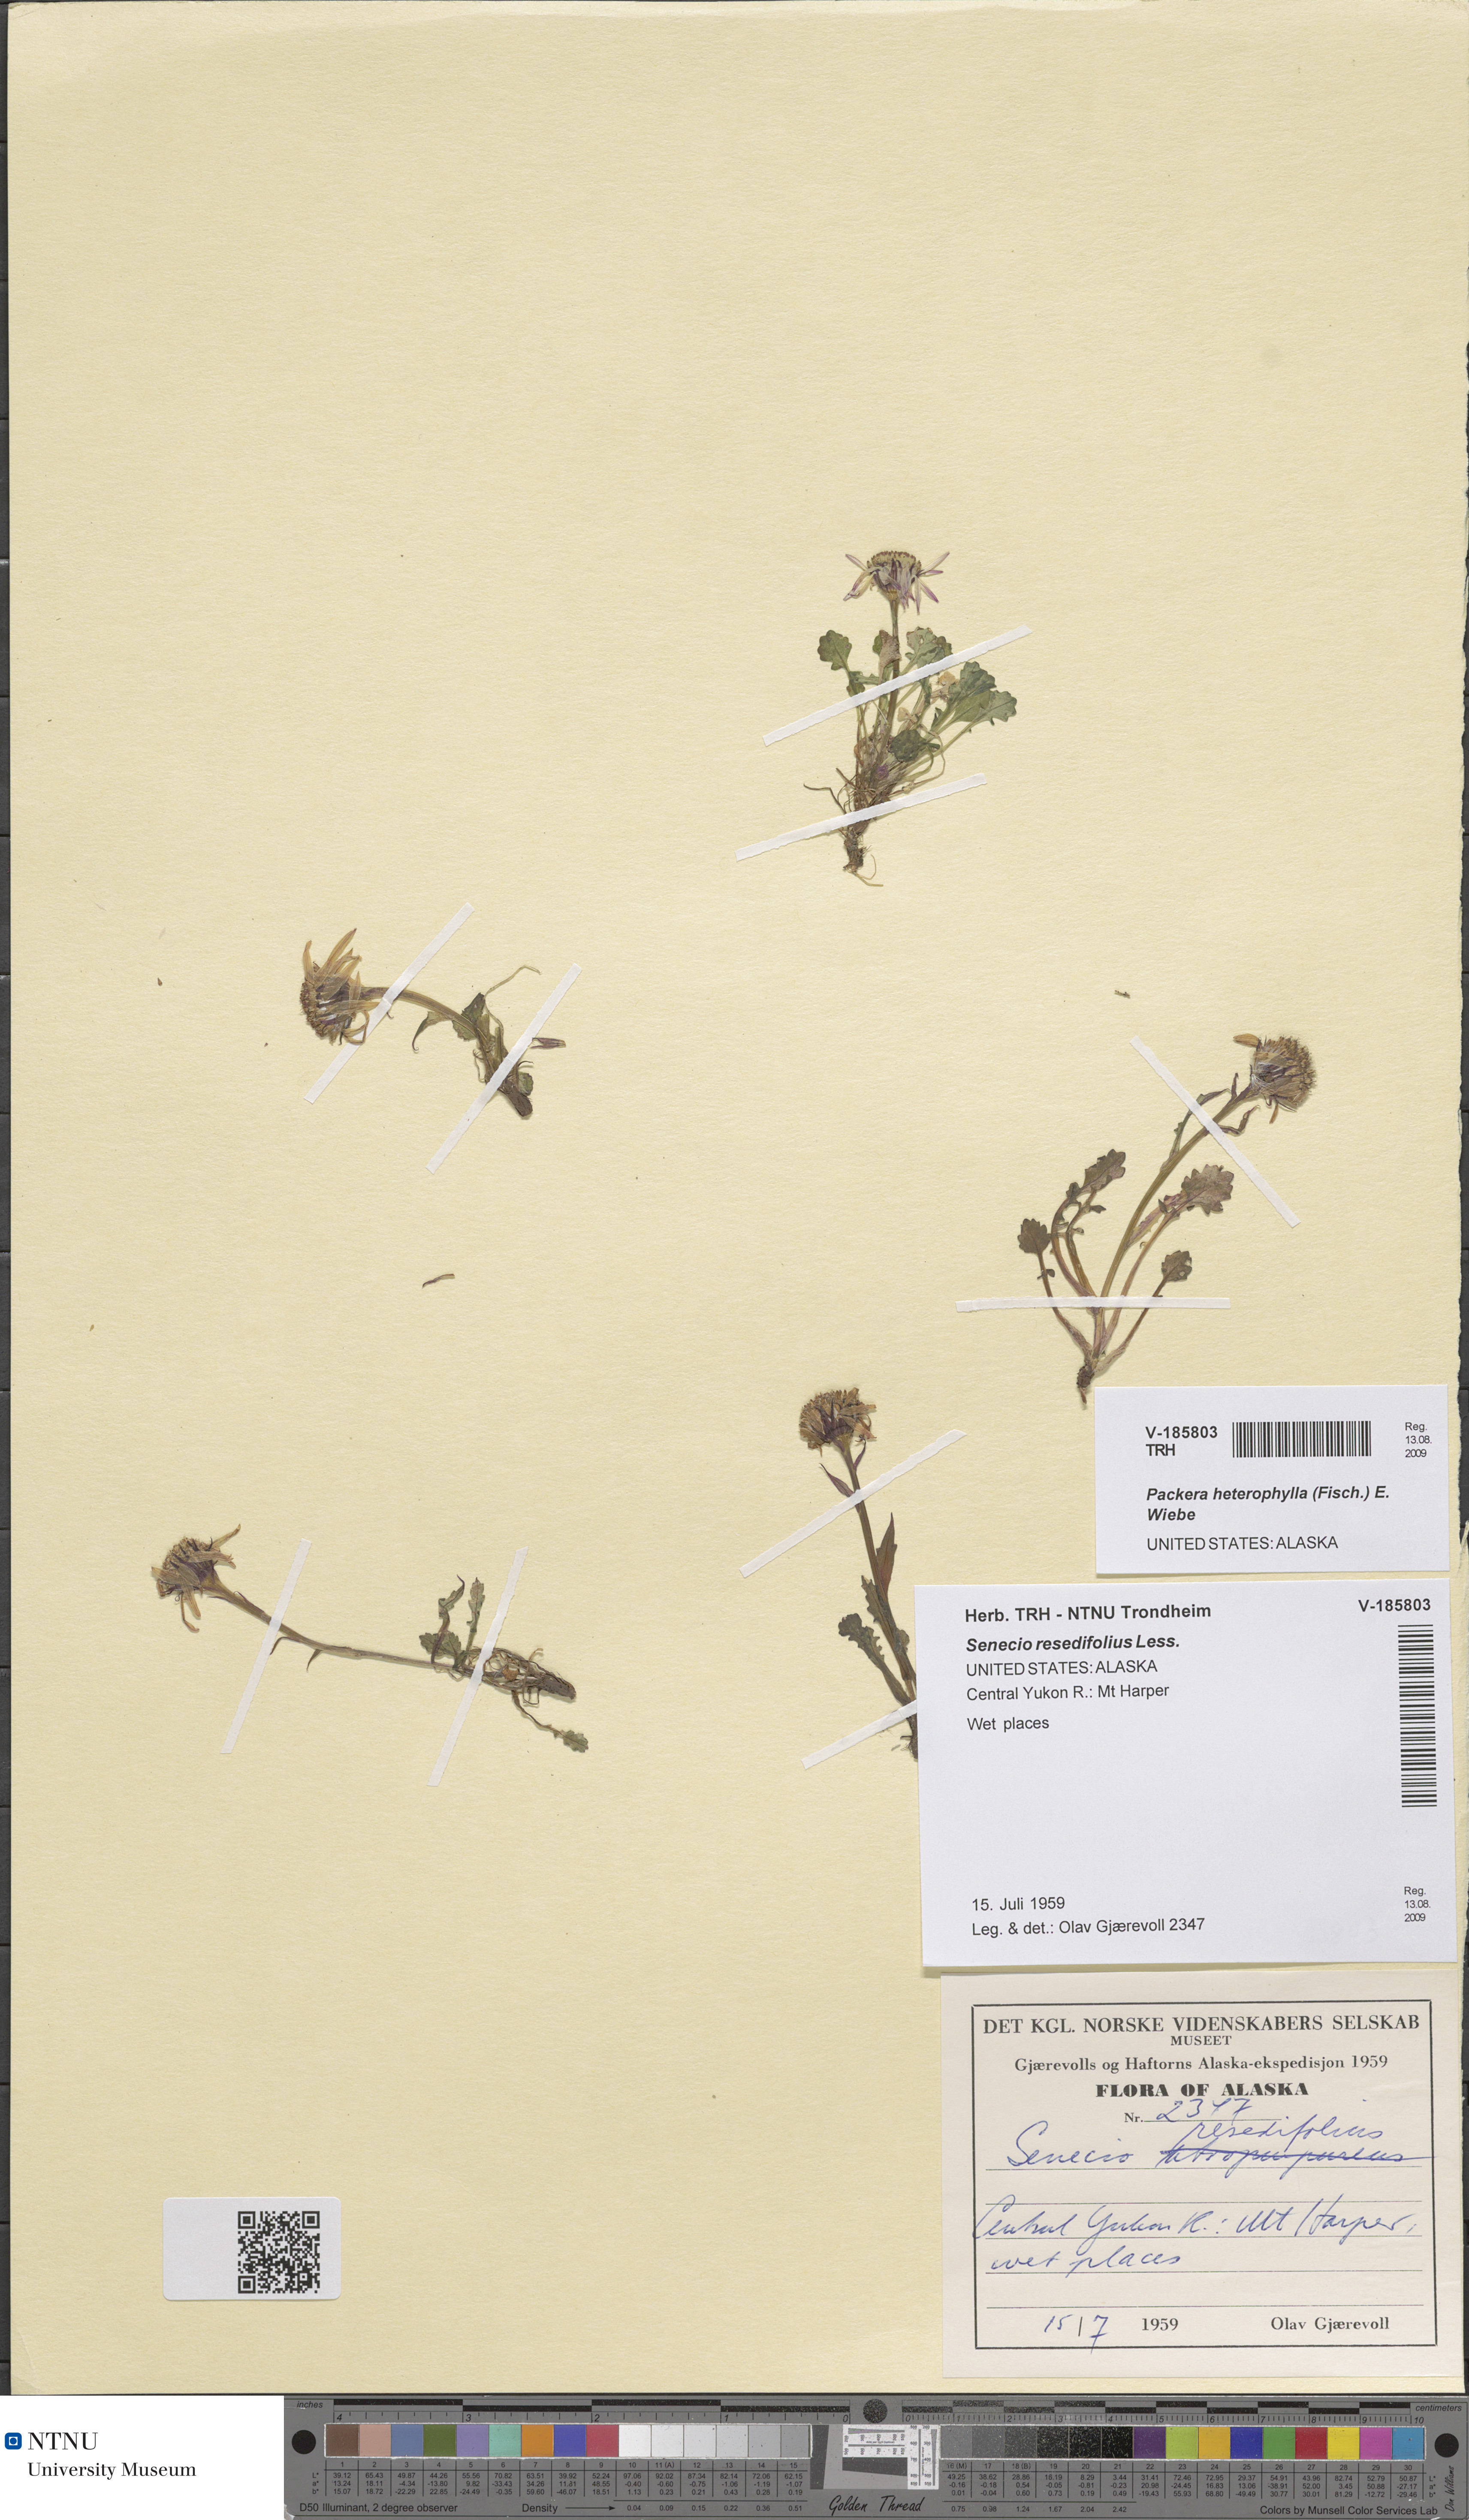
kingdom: Plantae
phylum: Tracheophyta
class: Magnoliopsida
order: Asterales
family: Asteraceae
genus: Packera
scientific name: Packera heterophylla
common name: Arctic butterweed
